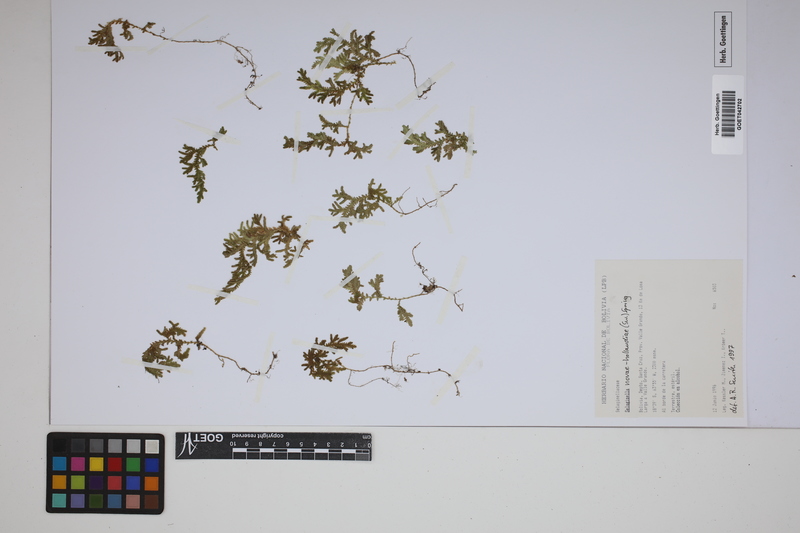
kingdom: Plantae
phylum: Tracheophyta
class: Lycopodiopsida
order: Selaginellales
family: Selaginellaceae
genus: Selaginella
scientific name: Selaginella novae-hollandiae
